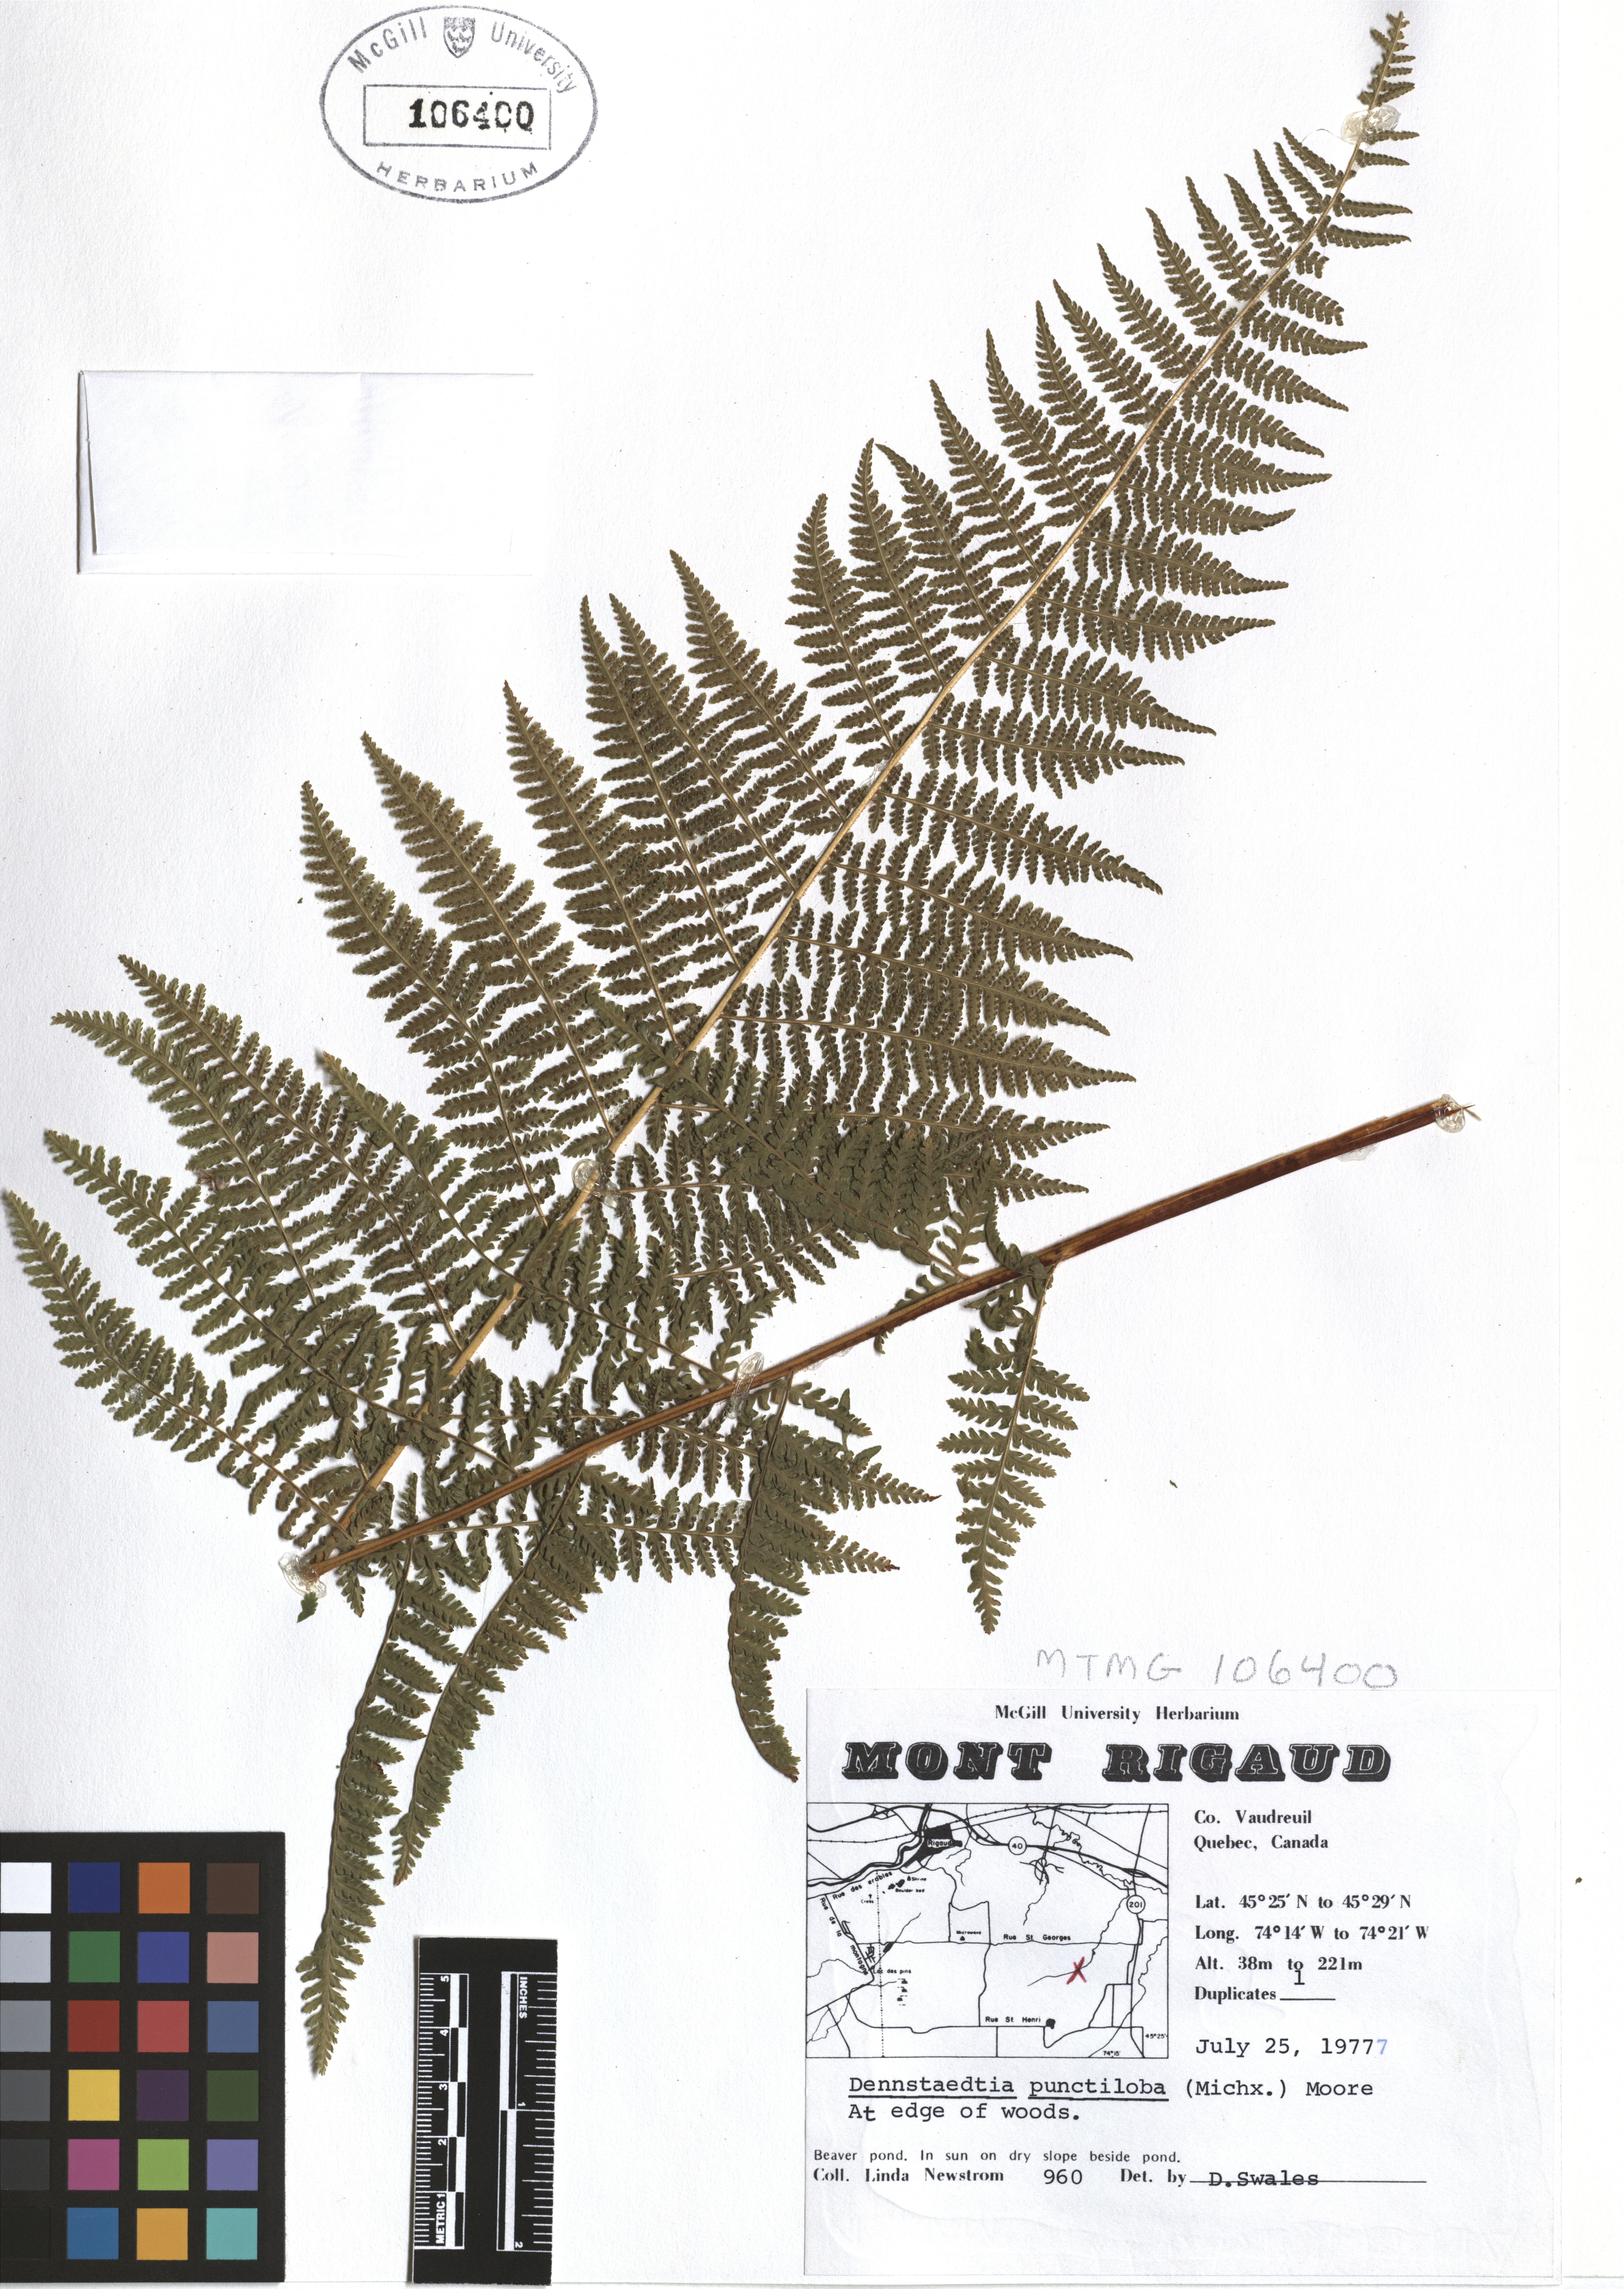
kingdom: Plantae
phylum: Tracheophyta
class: Polypodiopsida
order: Polypodiales
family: Dennstaedtiaceae
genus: Sitobolium
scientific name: Sitobolium punctilobum
